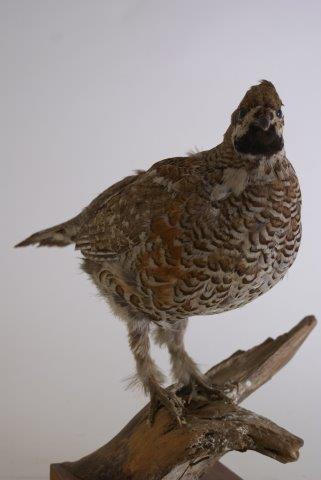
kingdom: Animalia
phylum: Chordata
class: Aves
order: Galliformes
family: Phasianidae
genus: Tetrastes
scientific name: Tetrastes bonasia
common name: Hazel grouse
